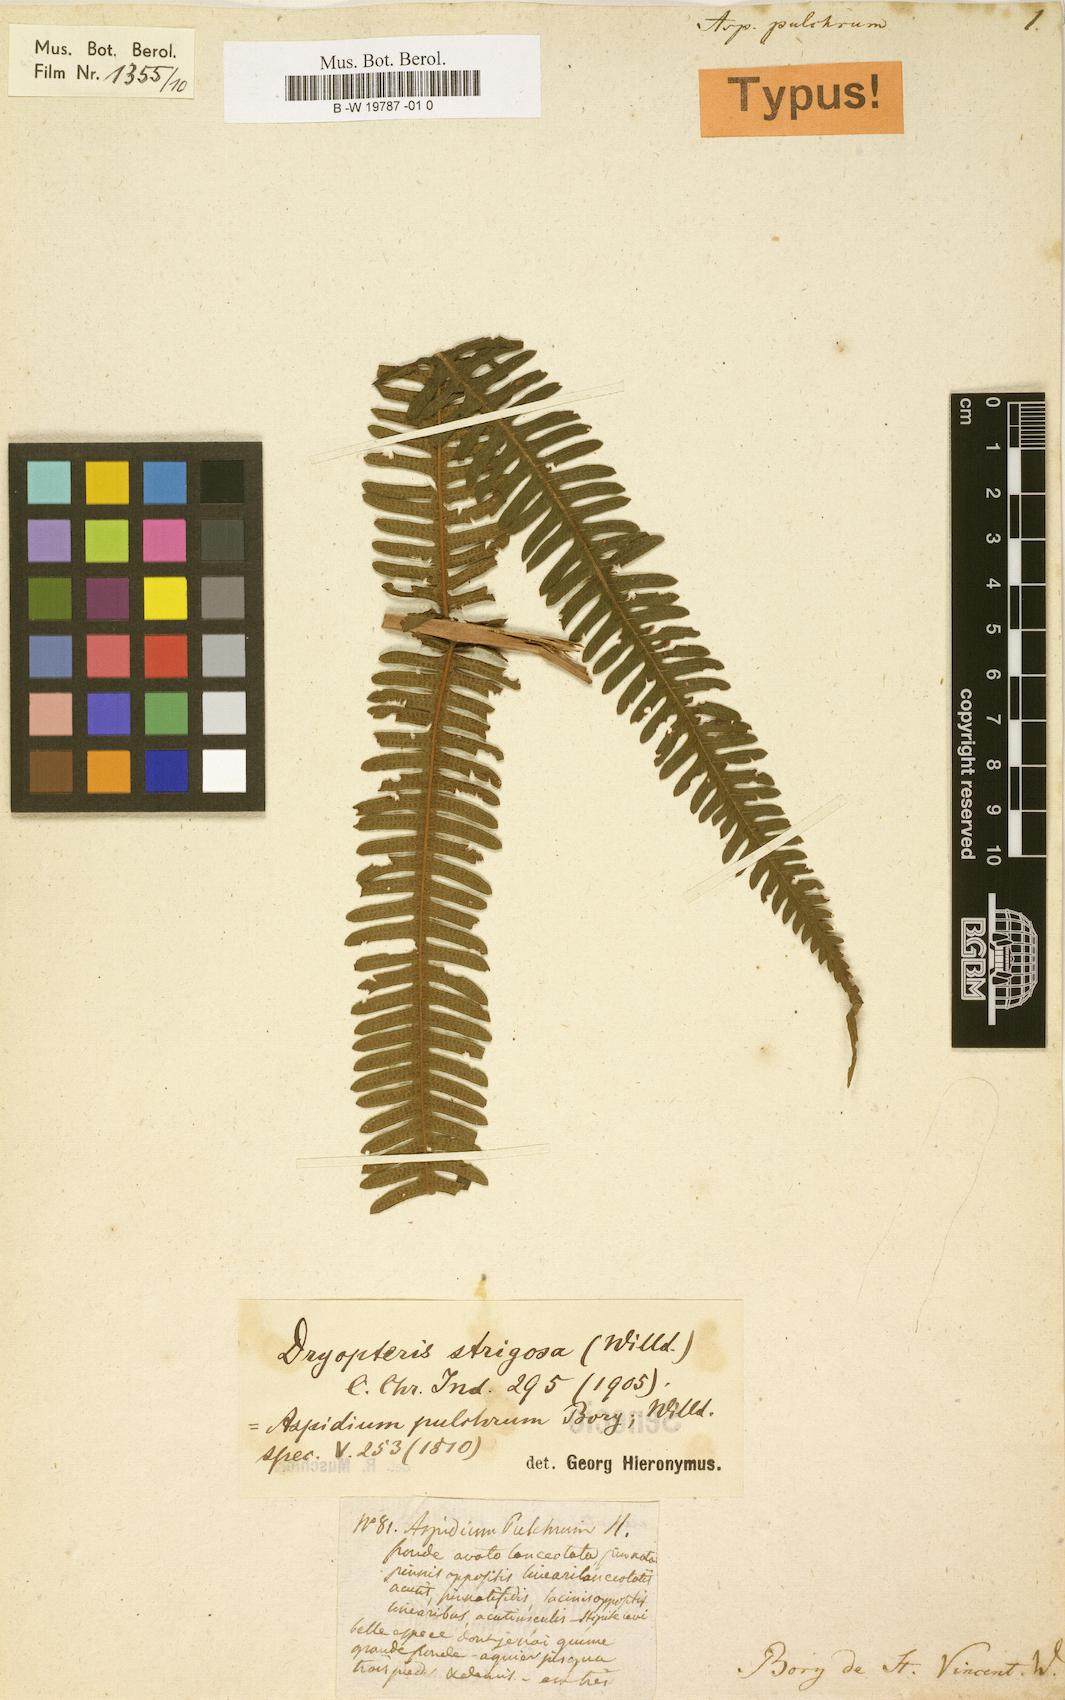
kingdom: Plantae
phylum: Tracheophyta
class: Polypodiopsida
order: Polypodiales
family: Thelypteridaceae
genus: Pseudocyclosorus
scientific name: Pseudocyclosorus pulcher
